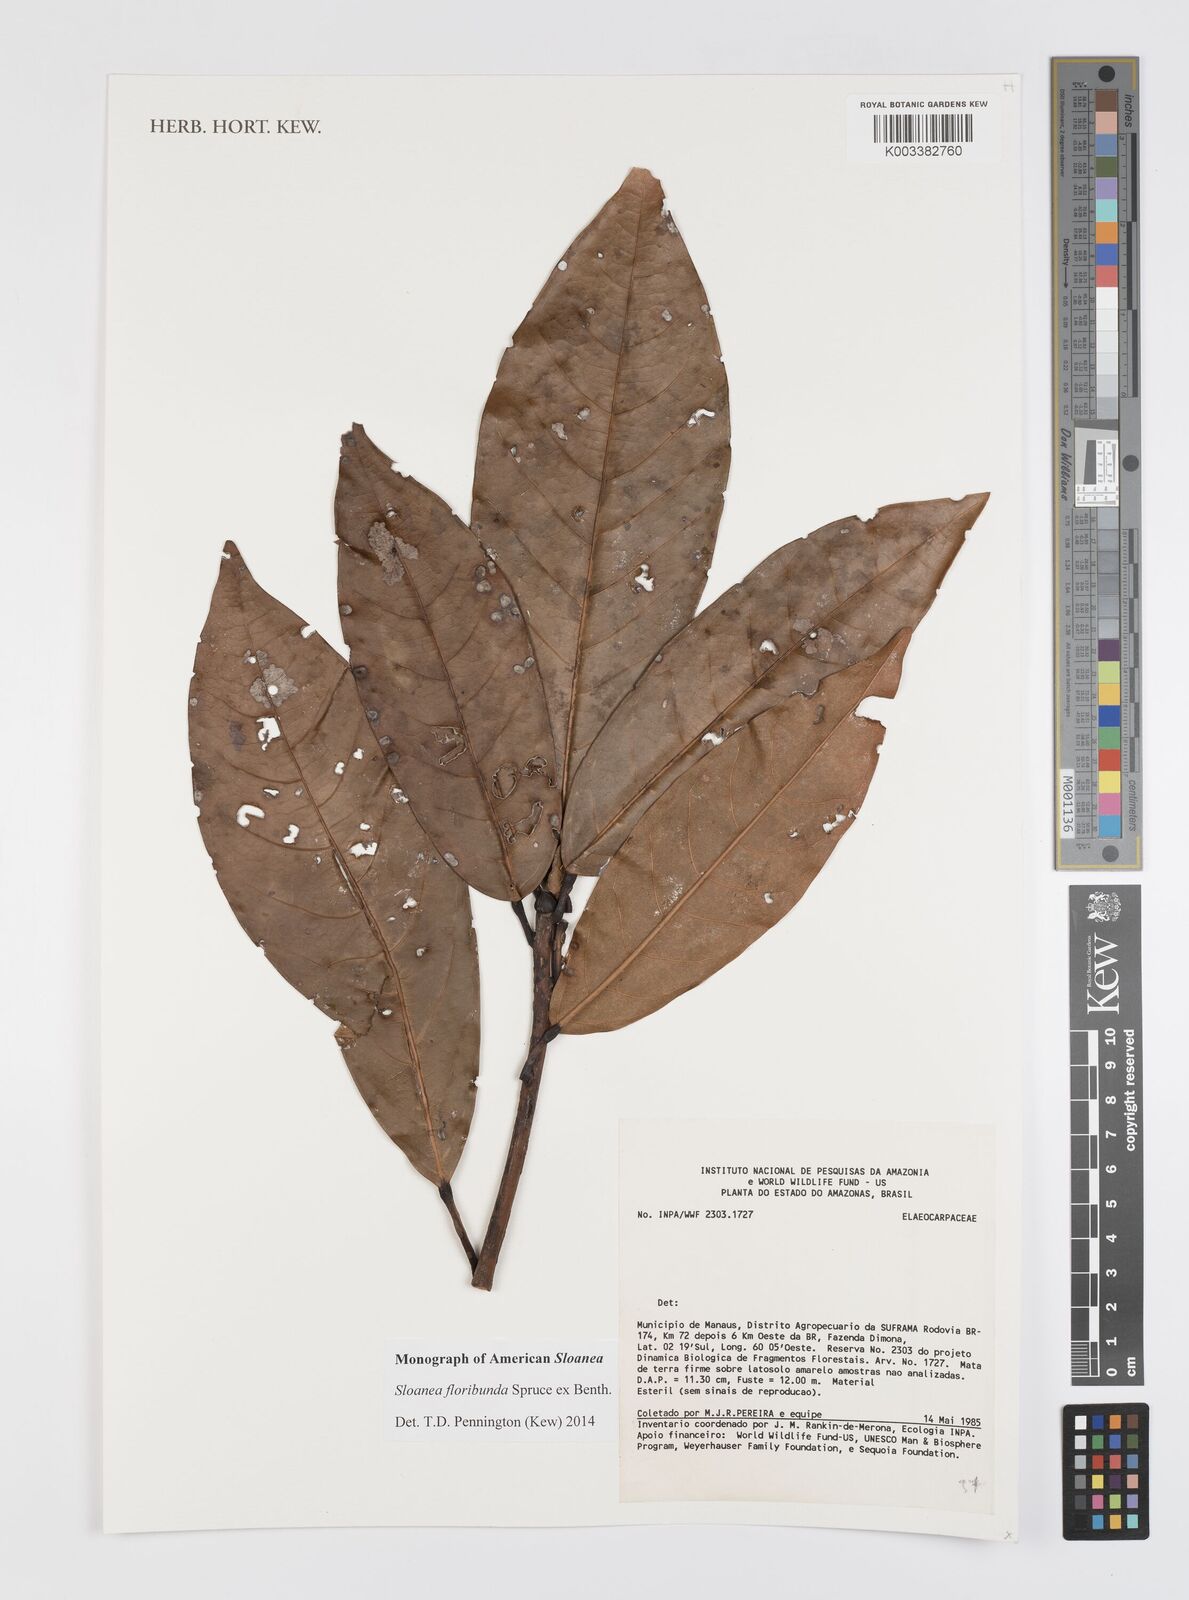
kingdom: Plantae
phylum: Tracheophyta
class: Magnoliopsida
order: Oxalidales
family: Elaeocarpaceae
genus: Sloanea
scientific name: Sloanea floribunda
